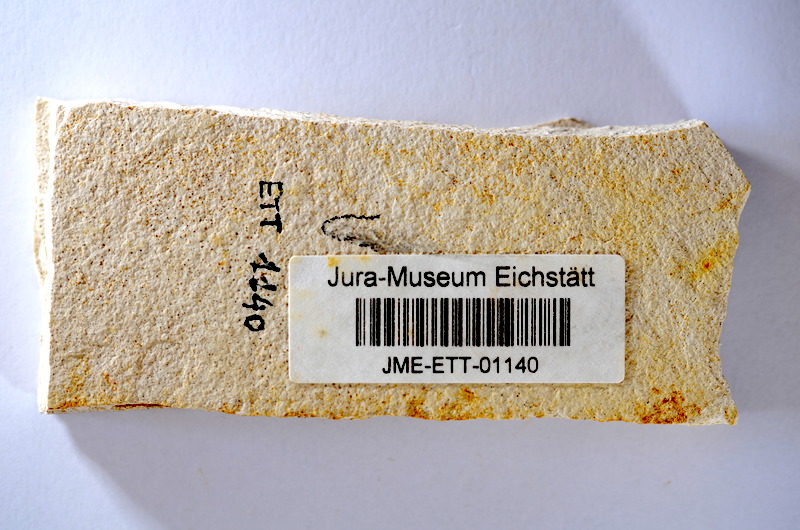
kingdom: Animalia
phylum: Chordata
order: Salmoniformes
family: Orthogonikleithridae
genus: Orthogonikleithrus
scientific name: Orthogonikleithrus hoelli
